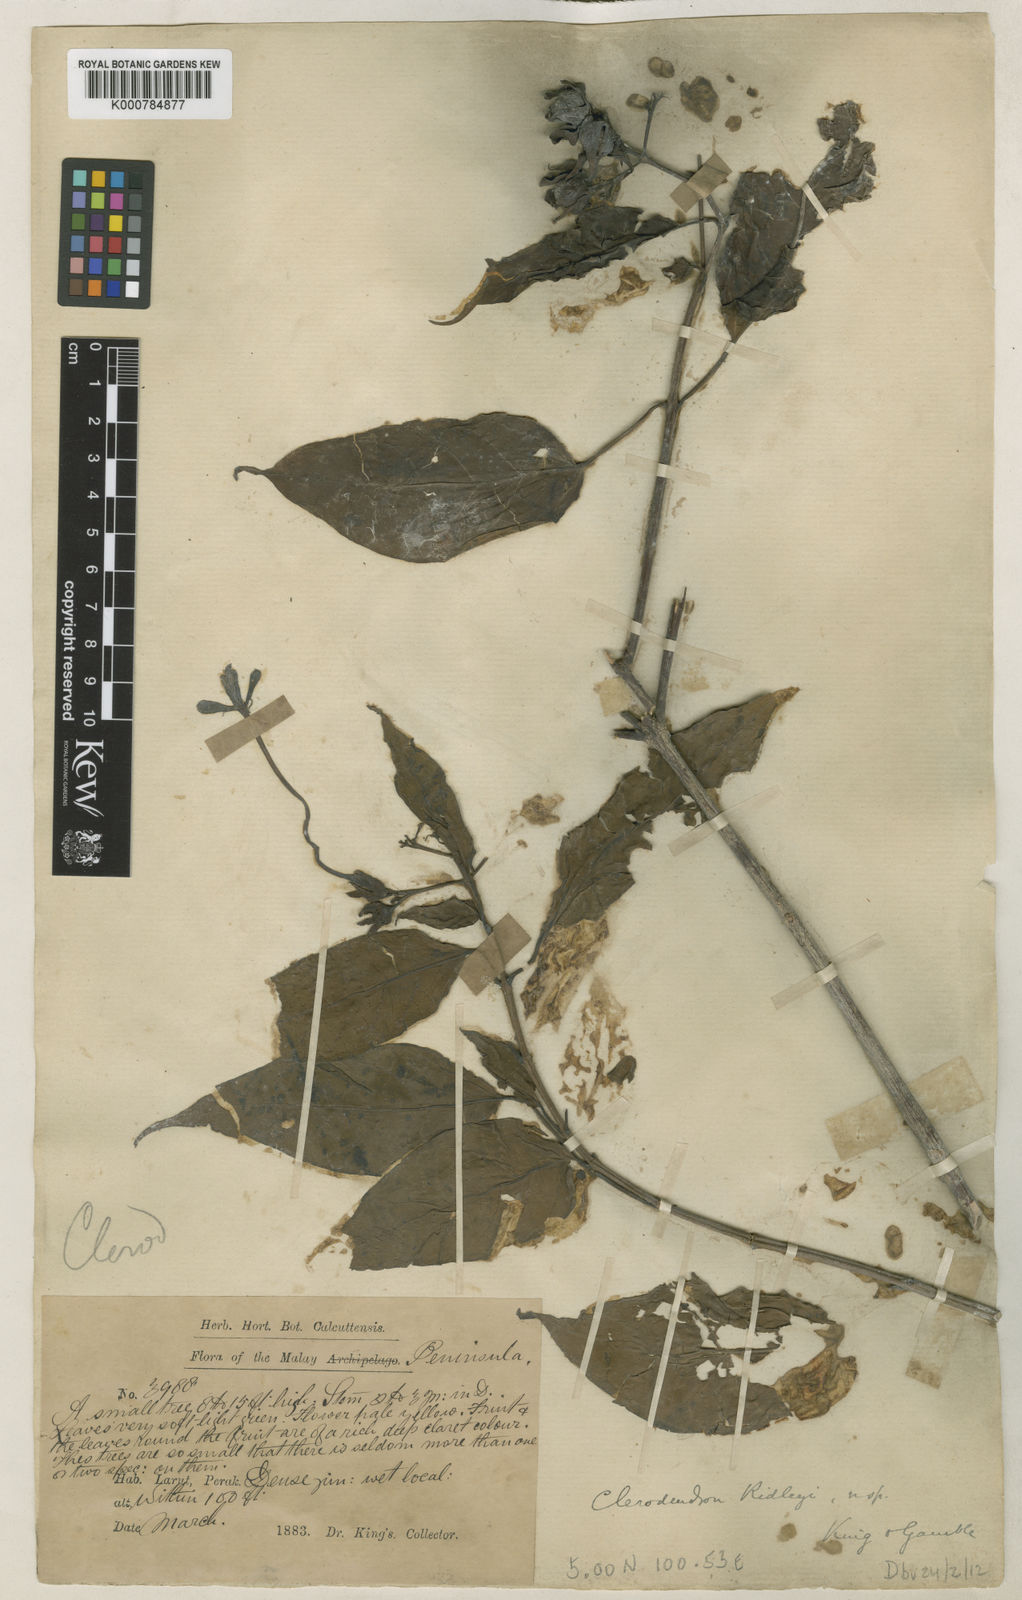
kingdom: Plantae
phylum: Tracheophyta
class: Magnoliopsida
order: Lamiales
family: Lamiaceae
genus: Clerodendrum
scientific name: Clerodendrum ridleyi
